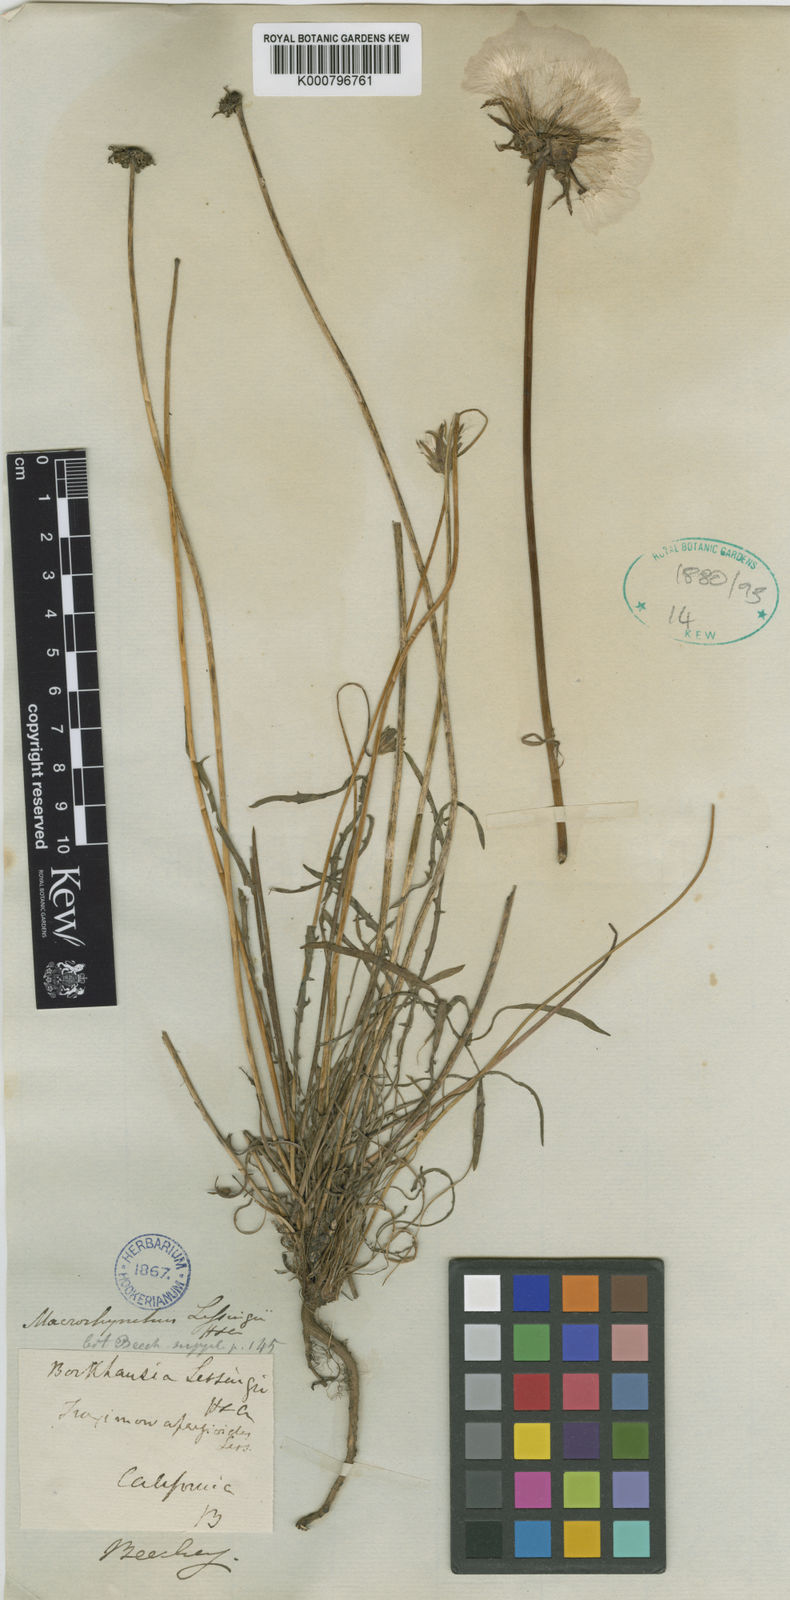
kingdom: Plantae
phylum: Tracheophyta
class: Magnoliopsida
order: Asterales
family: Asteraceae
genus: Agoseris
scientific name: Agoseris apargioides
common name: Point reyes agoseris
